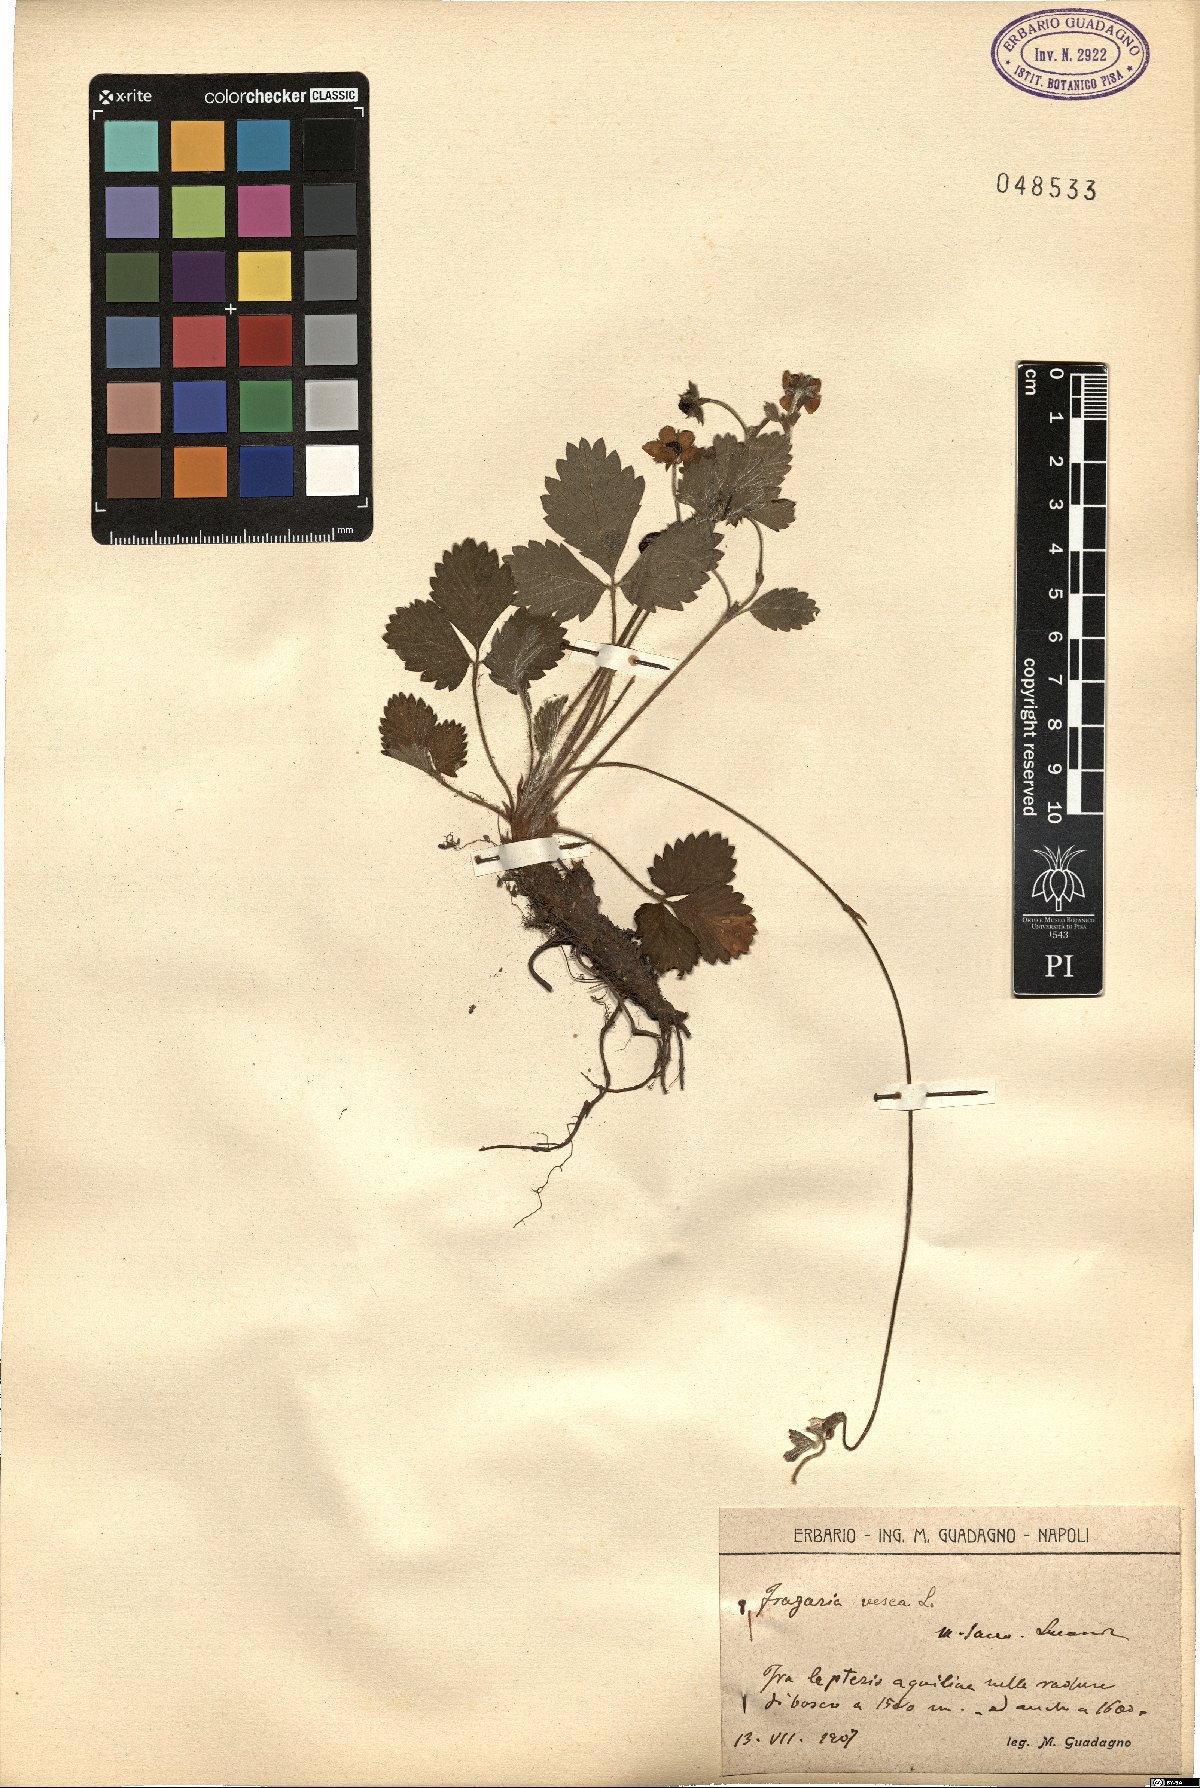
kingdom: Plantae
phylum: Tracheophyta
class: Magnoliopsida
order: Rosales
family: Rosaceae
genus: Fragaria
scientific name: Fragaria vesca
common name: Wild strawberry
